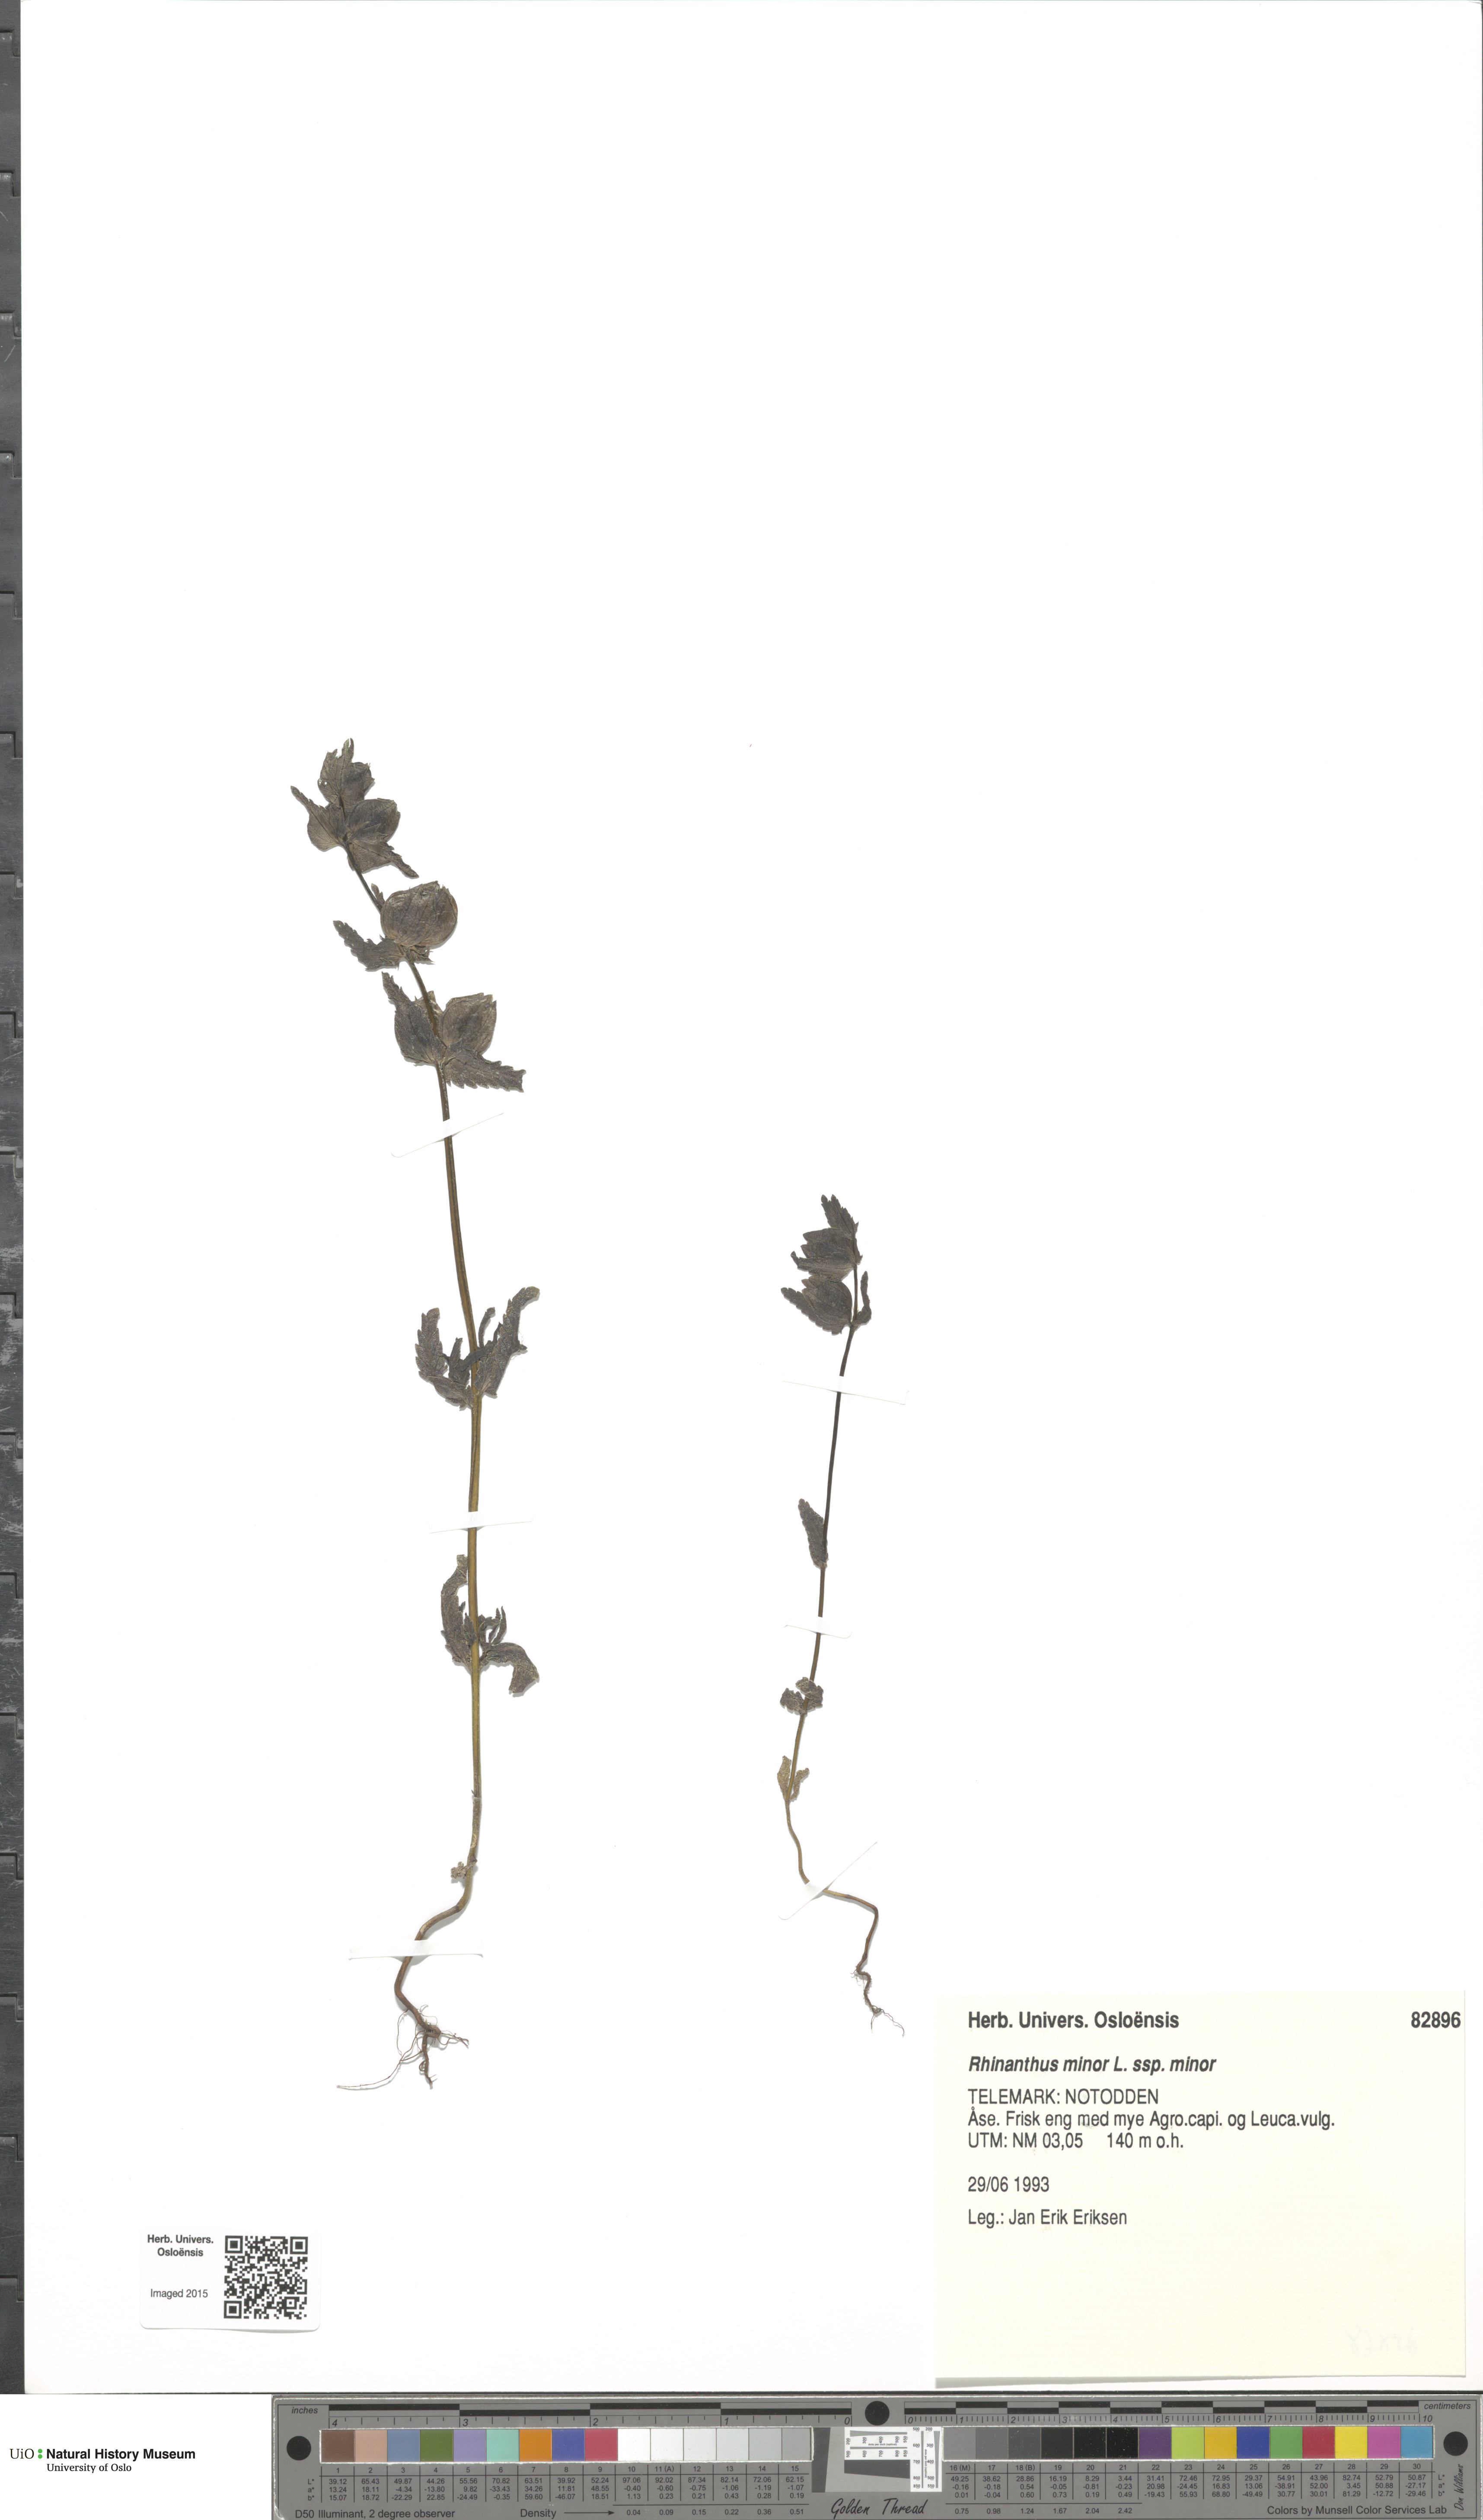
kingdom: Plantae
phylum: Tracheophyta
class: Magnoliopsida
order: Lamiales
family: Orobanchaceae
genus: Rhinanthus
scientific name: Rhinanthus minor
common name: Yellow-rattle
